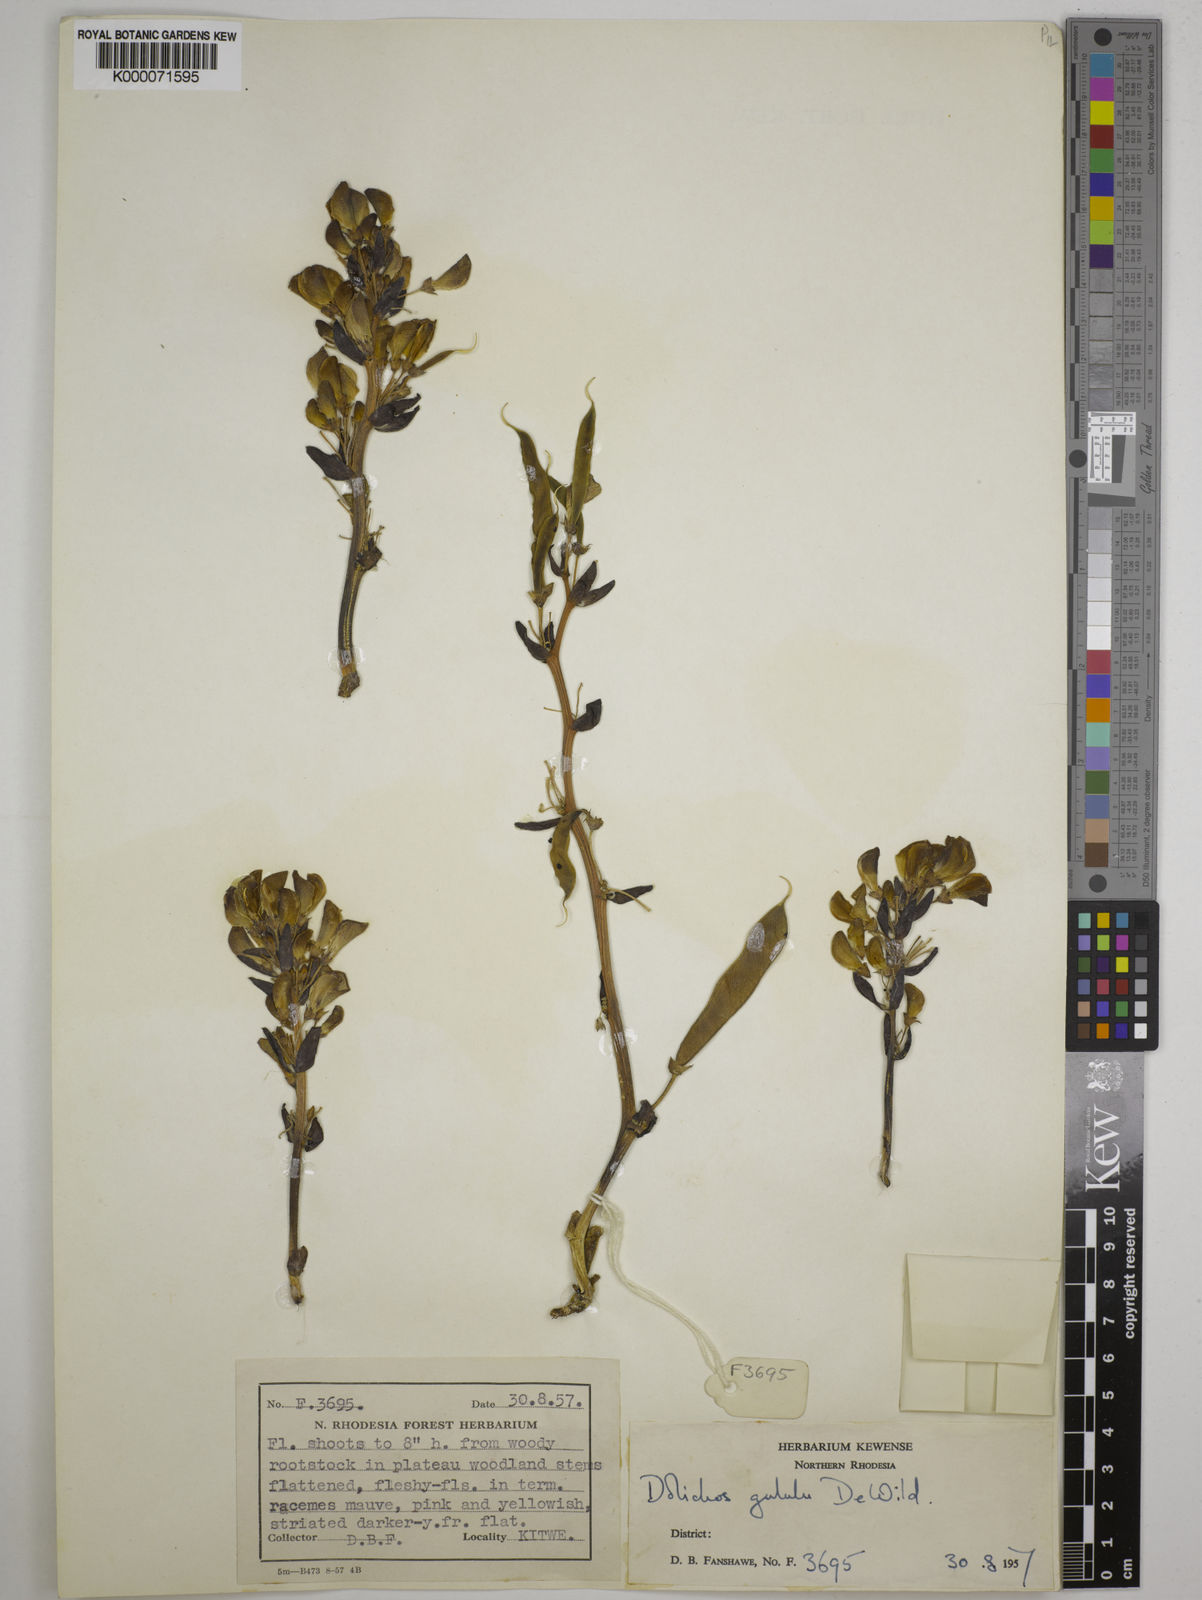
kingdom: Plantae
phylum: Tracheophyta
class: Magnoliopsida
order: Fabales
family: Fabaceae
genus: Dolichos
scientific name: Dolichos gululu
